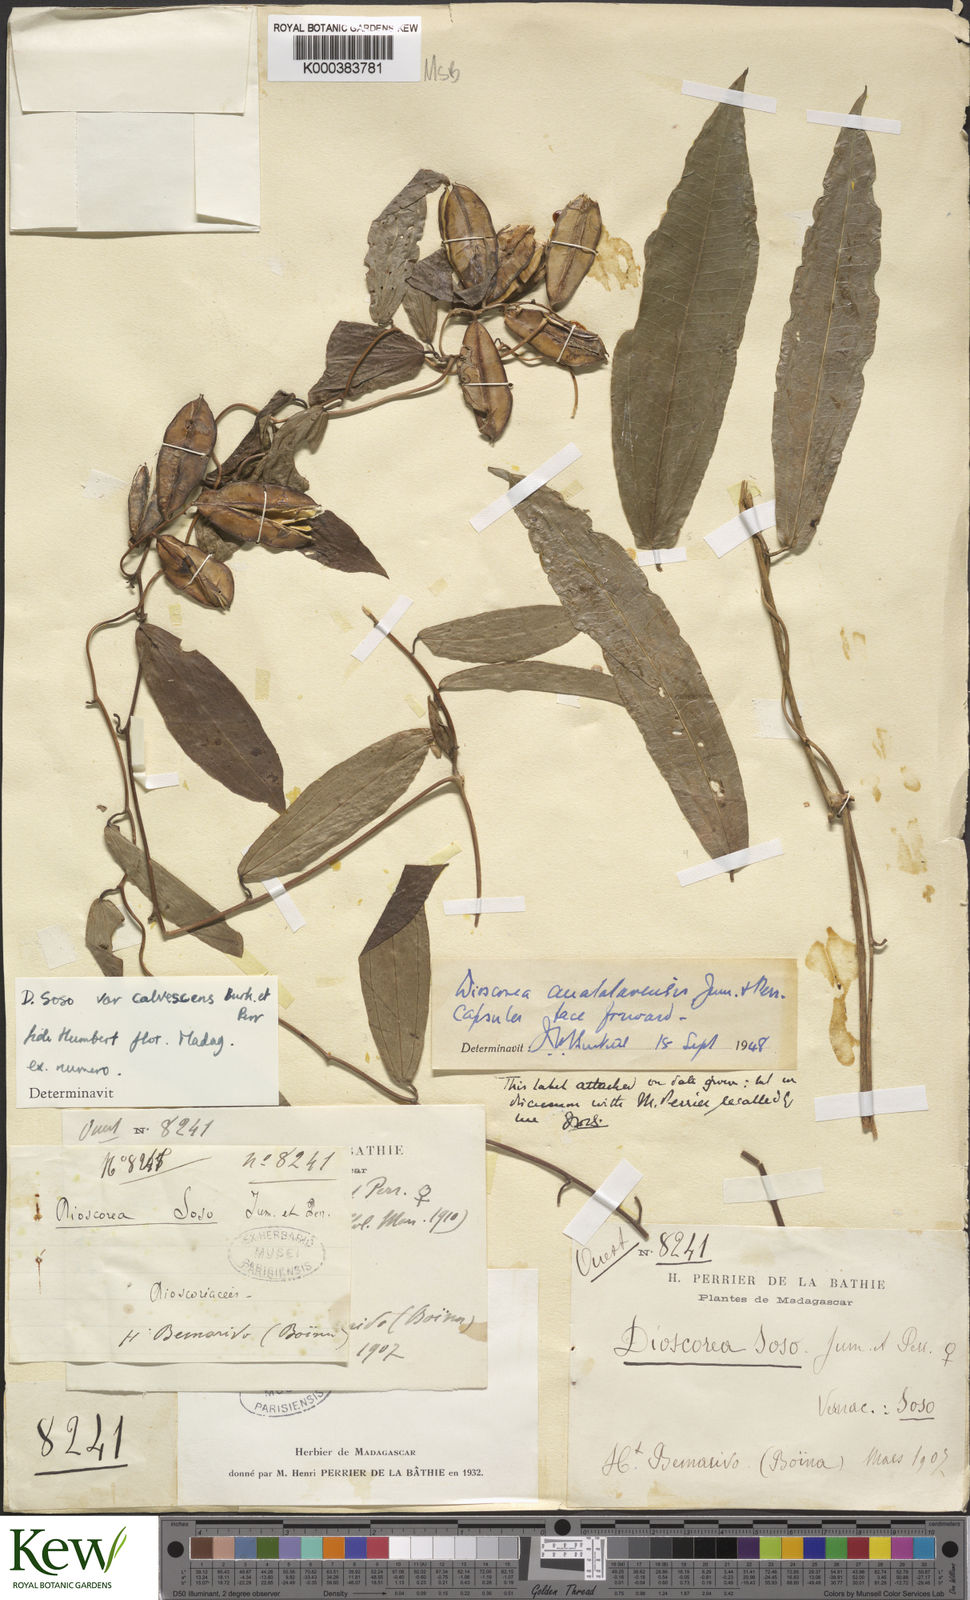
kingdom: Plantae
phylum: Tracheophyta
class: Liliopsida
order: Dioscoreales
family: Dioscoreaceae
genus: Dioscorea
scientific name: Dioscorea
